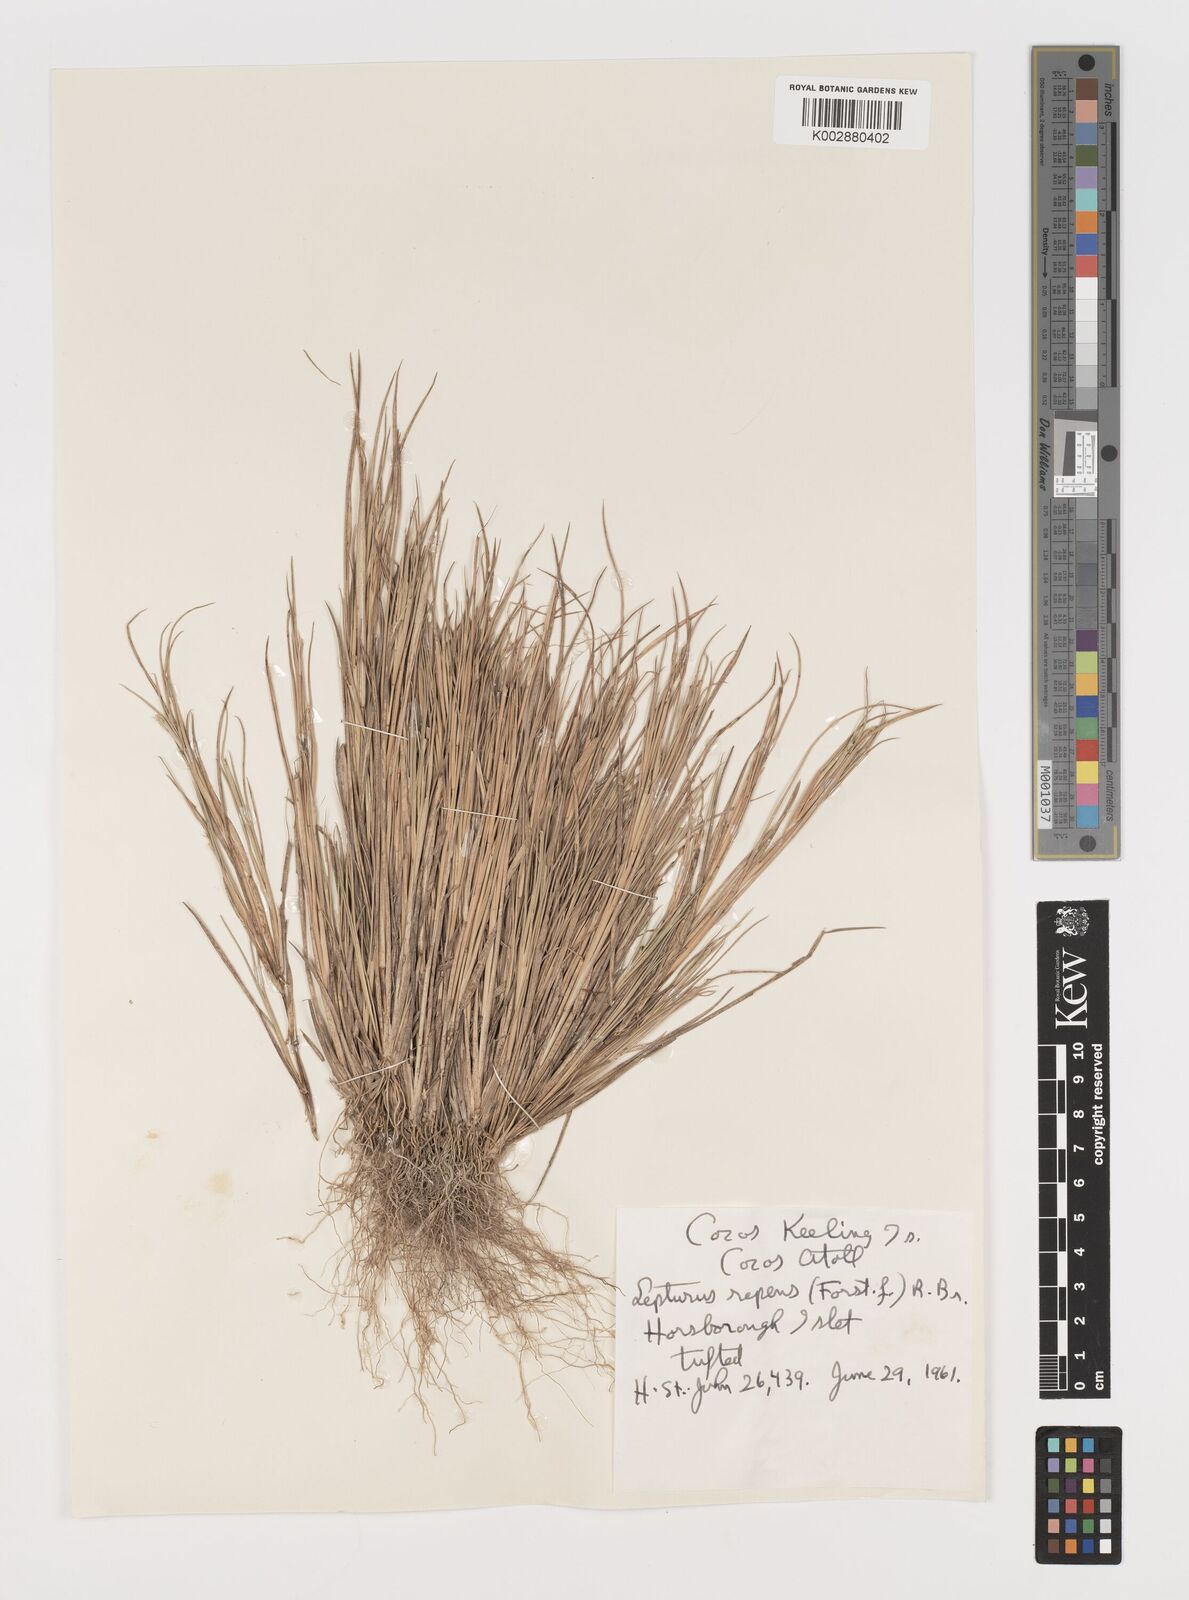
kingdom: Plantae
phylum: Tracheophyta
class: Liliopsida
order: Poales
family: Poaceae
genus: Lepturus
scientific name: Lepturus repens
